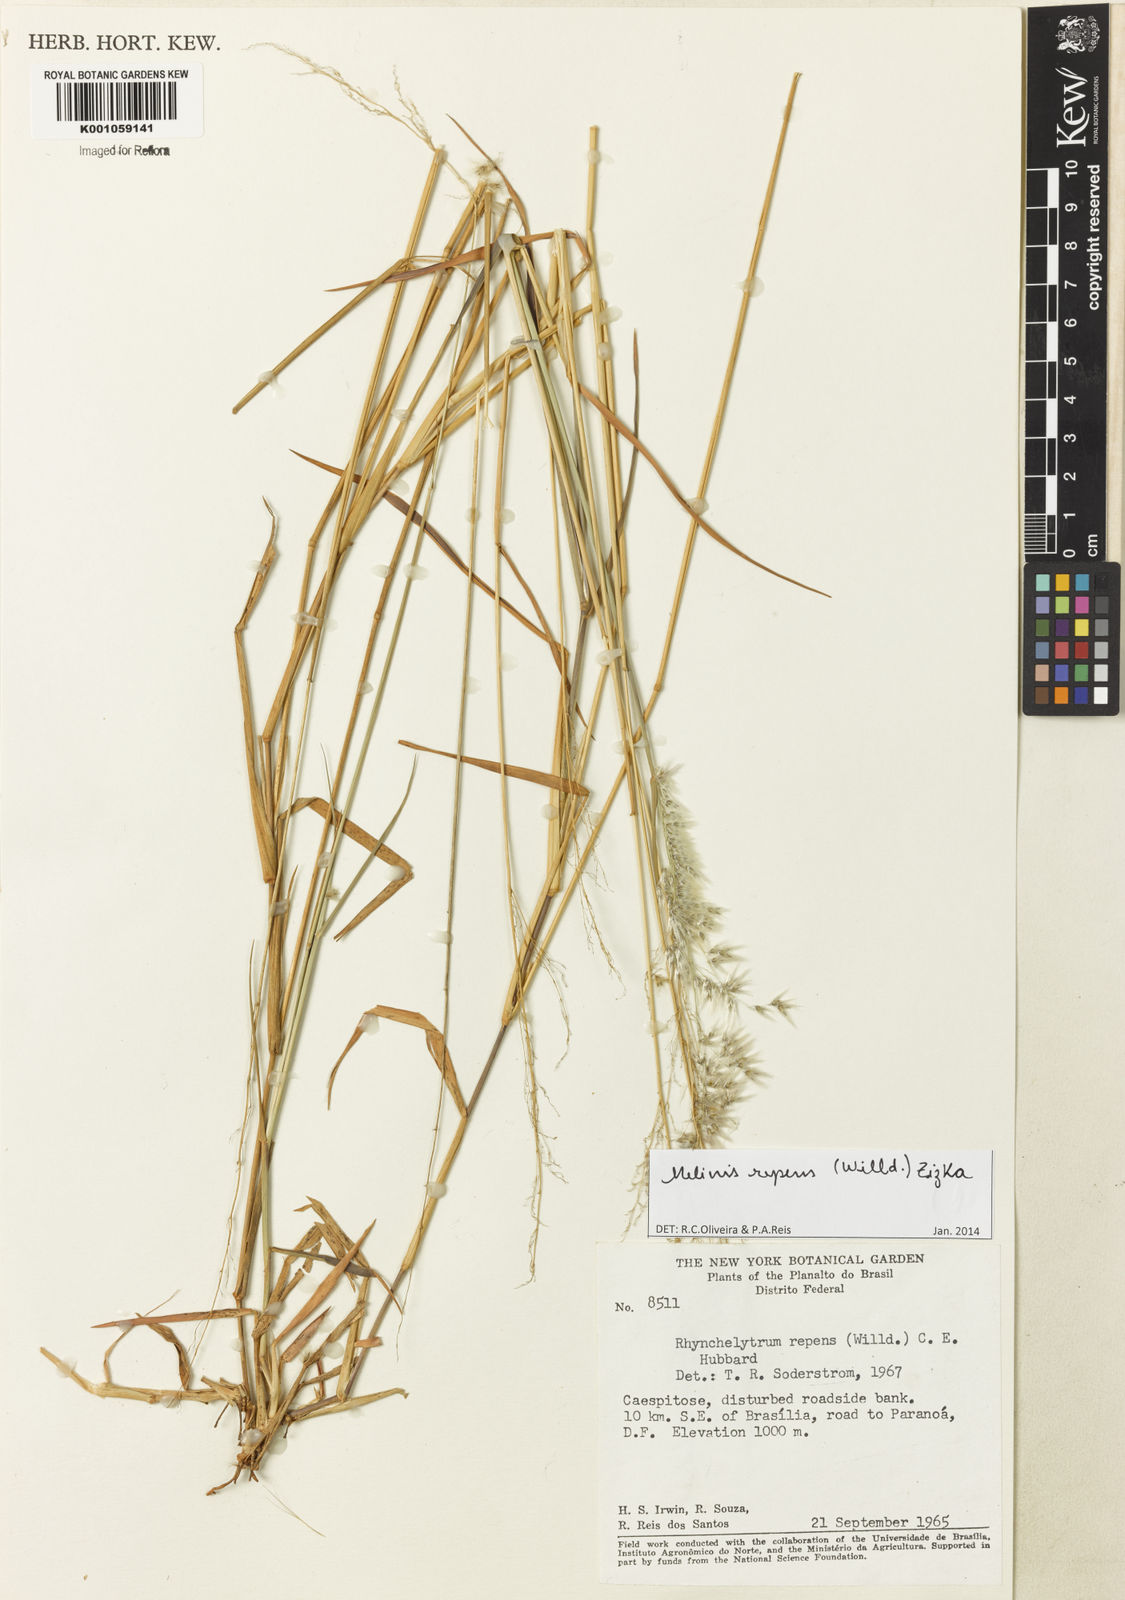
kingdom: Plantae
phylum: Tracheophyta
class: Liliopsida
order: Poales
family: Poaceae
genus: Melinis
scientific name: Melinis repens
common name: Rose natal grass
